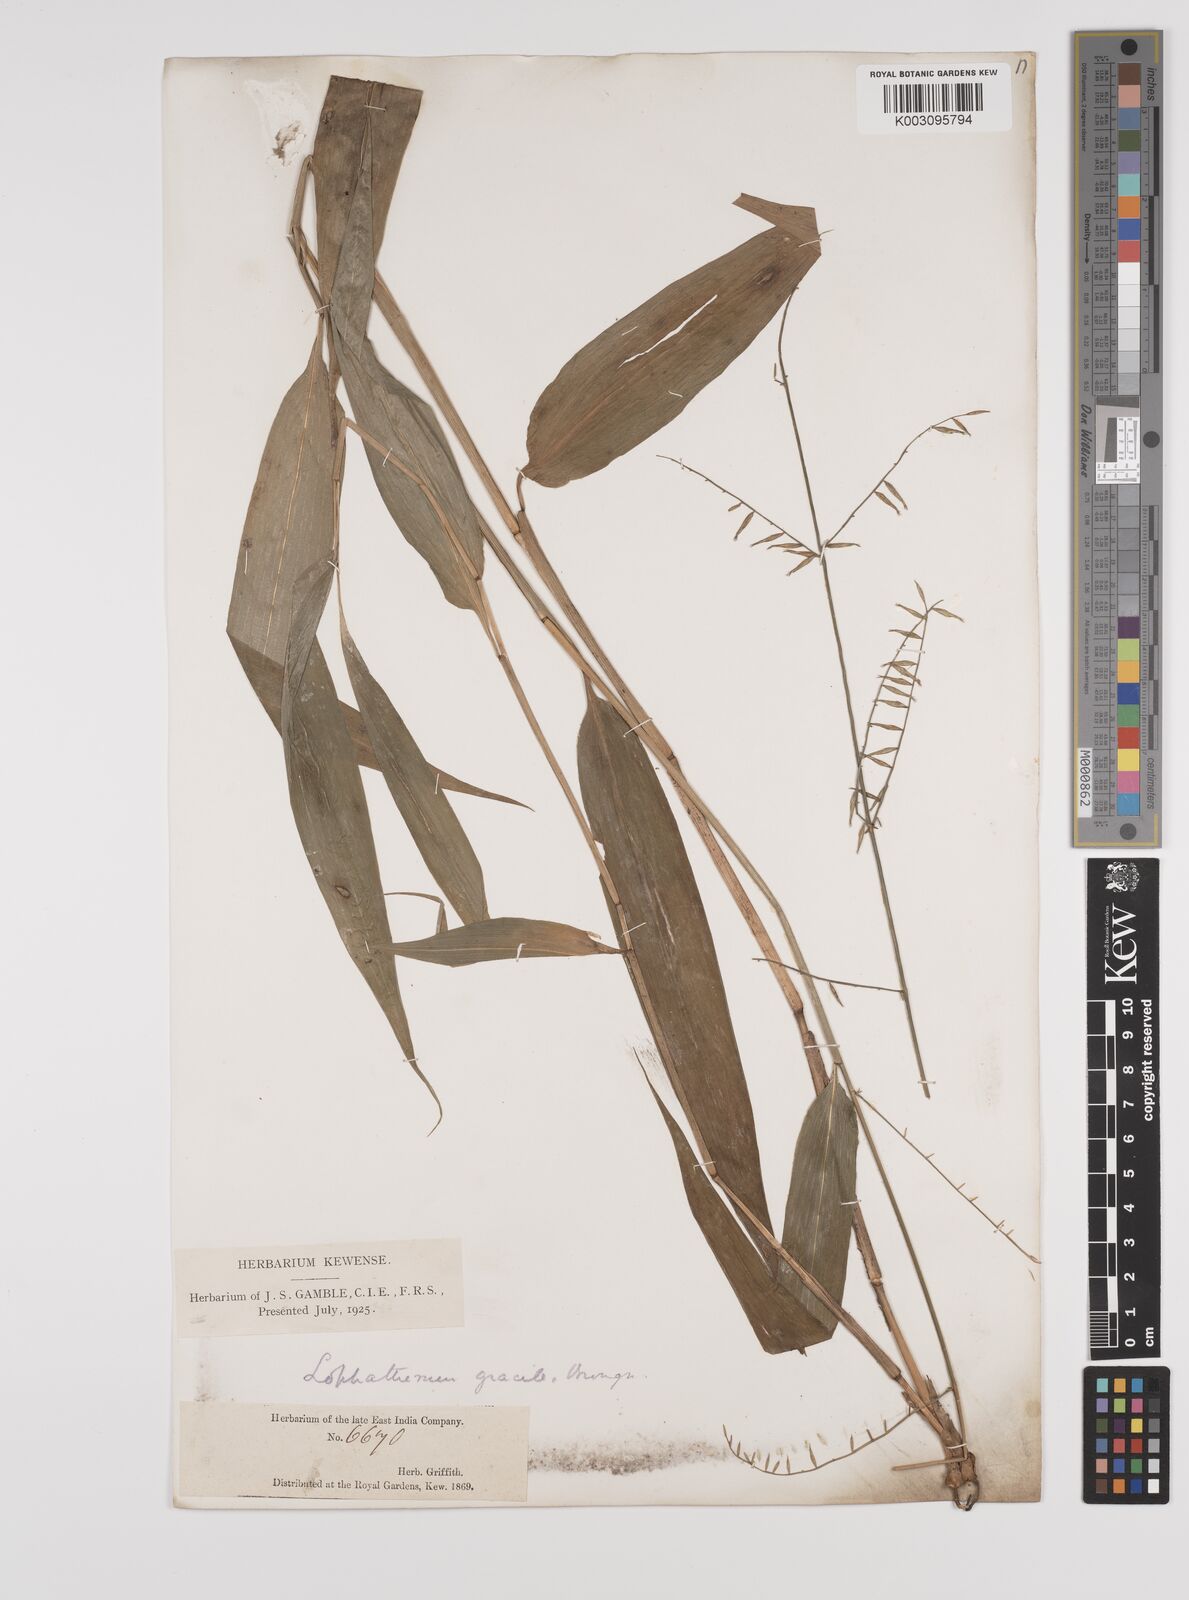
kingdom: Plantae
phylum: Tracheophyta
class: Liliopsida
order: Poales
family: Poaceae
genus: Lophatherum
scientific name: Lophatherum gracile
